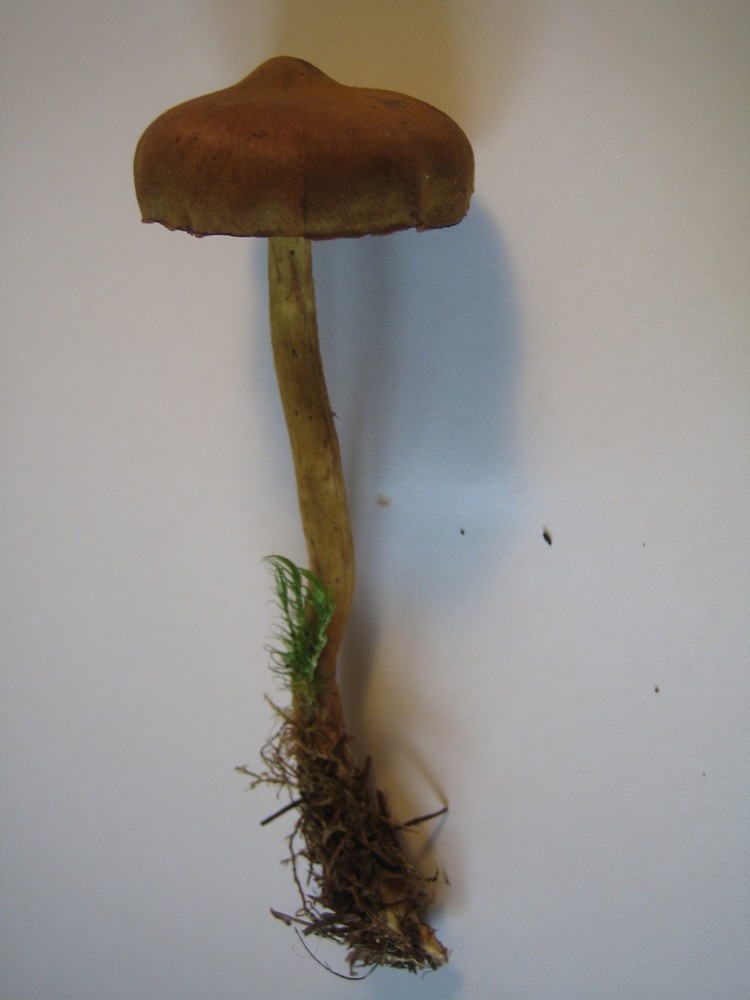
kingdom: Fungi
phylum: Basidiomycota
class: Agaricomycetes
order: Agaricales
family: Cortinariaceae
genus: Cortinarius
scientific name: Cortinarius
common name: cinnoberbladet slørhat
